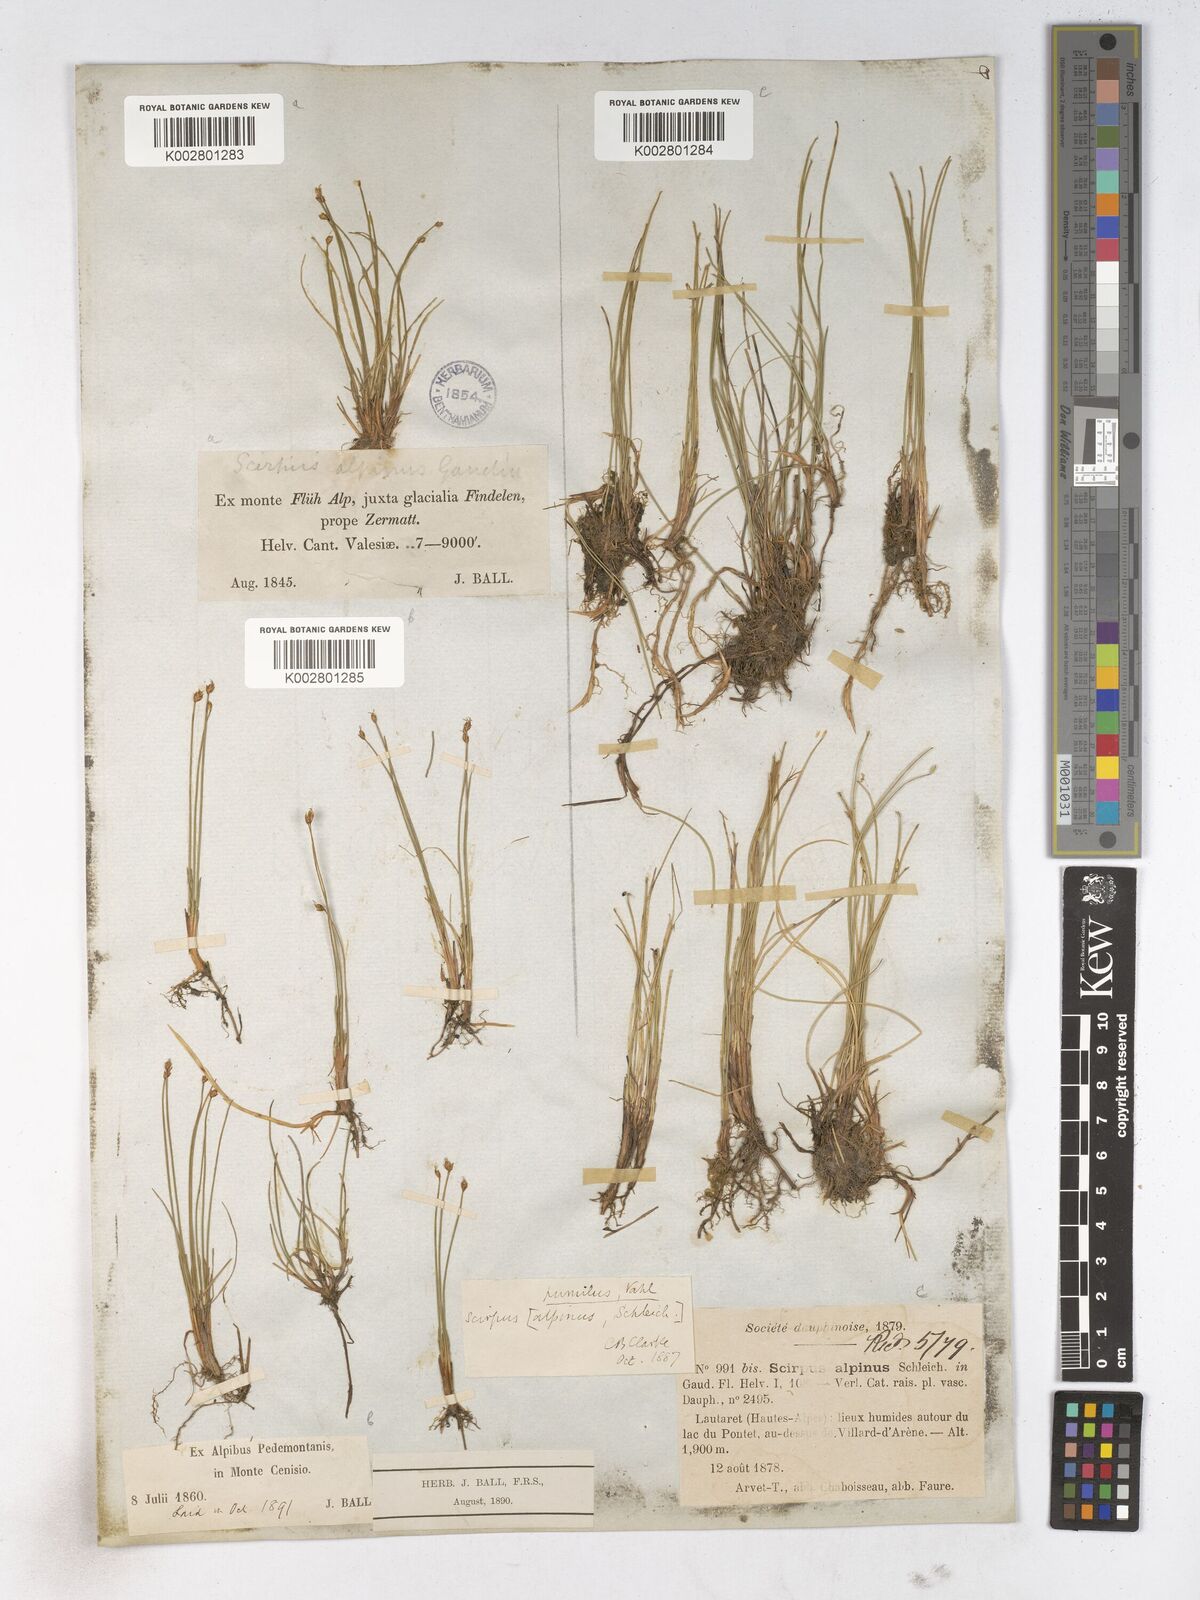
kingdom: Plantae
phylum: Tracheophyta
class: Liliopsida
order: Poales
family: Cyperaceae
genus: Trichophorum
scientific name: Trichophorum pumilum
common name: Rolland's bulrush
